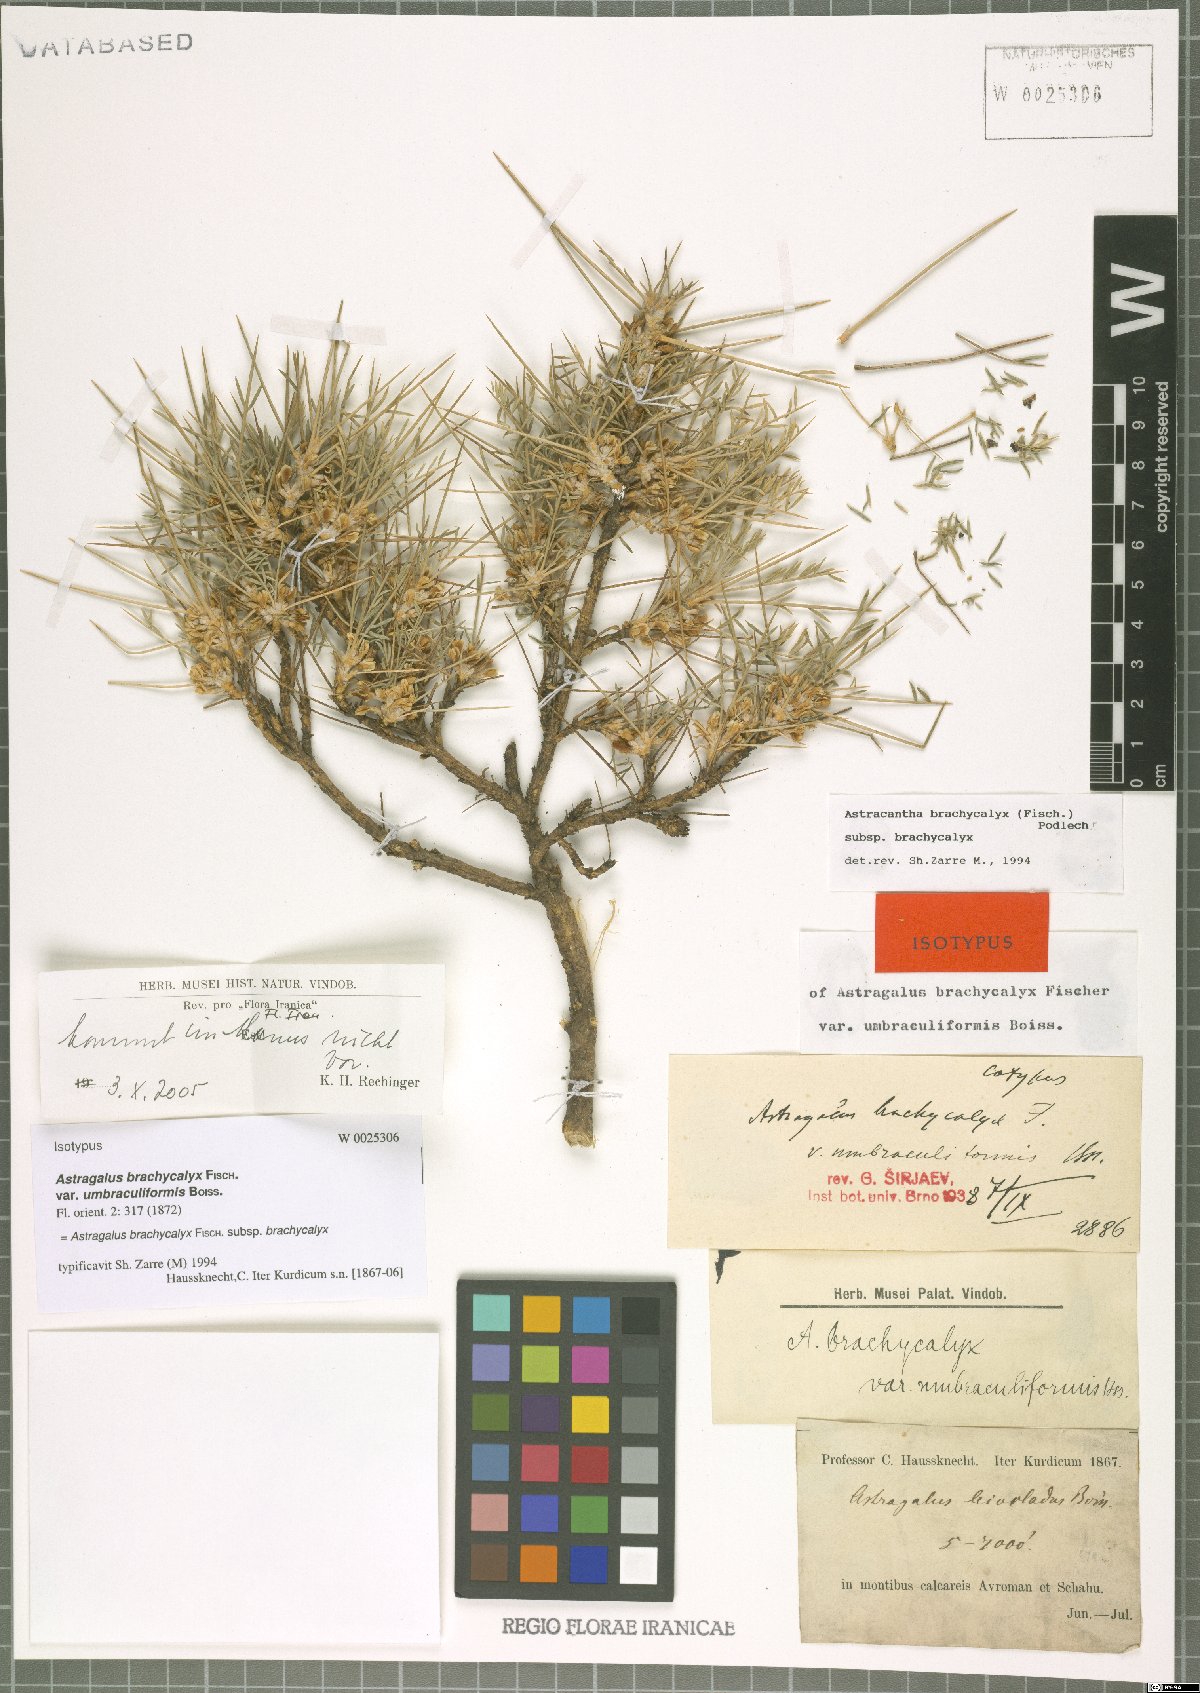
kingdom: Plantae
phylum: Tracheophyta
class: Magnoliopsida
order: Fabales
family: Fabaceae
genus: Astragalus
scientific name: Astragalus brachycalyx
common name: Persian manna
